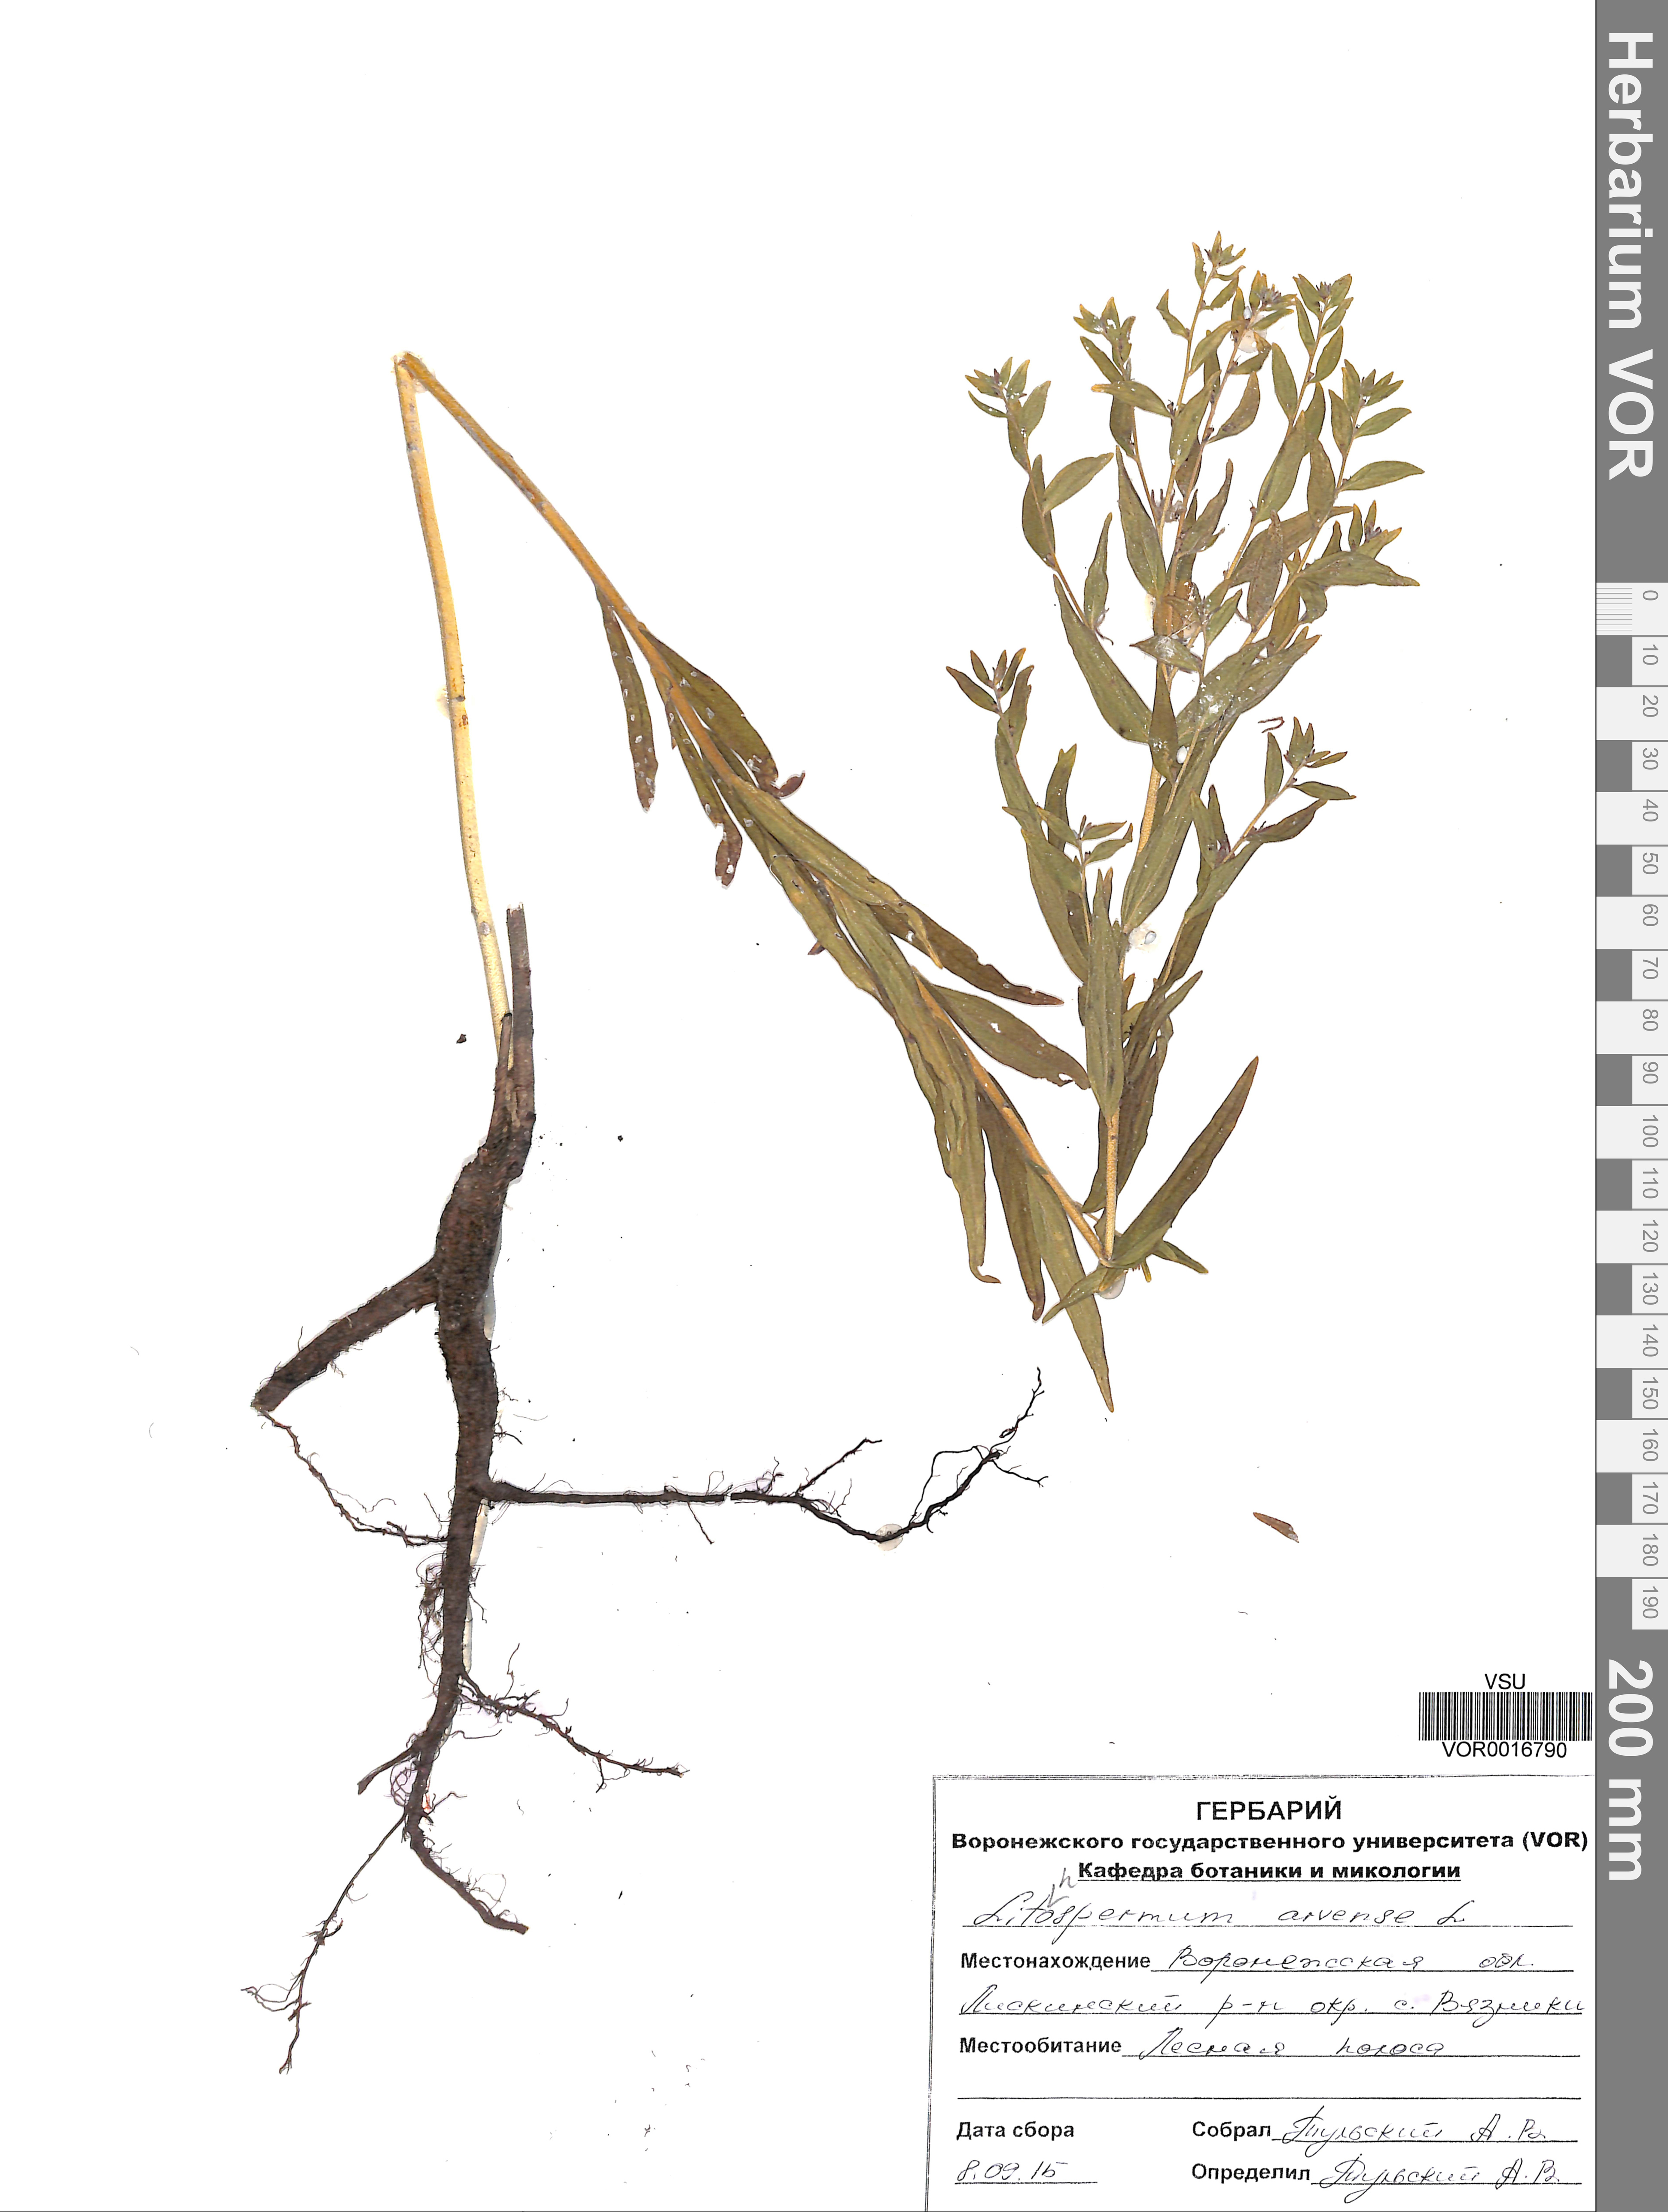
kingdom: Plantae
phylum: Tracheophyta
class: Magnoliopsida
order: Boraginales
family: Boraginaceae
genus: Buglossoides
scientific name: Buglossoides arvensis
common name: Corn gromwell
